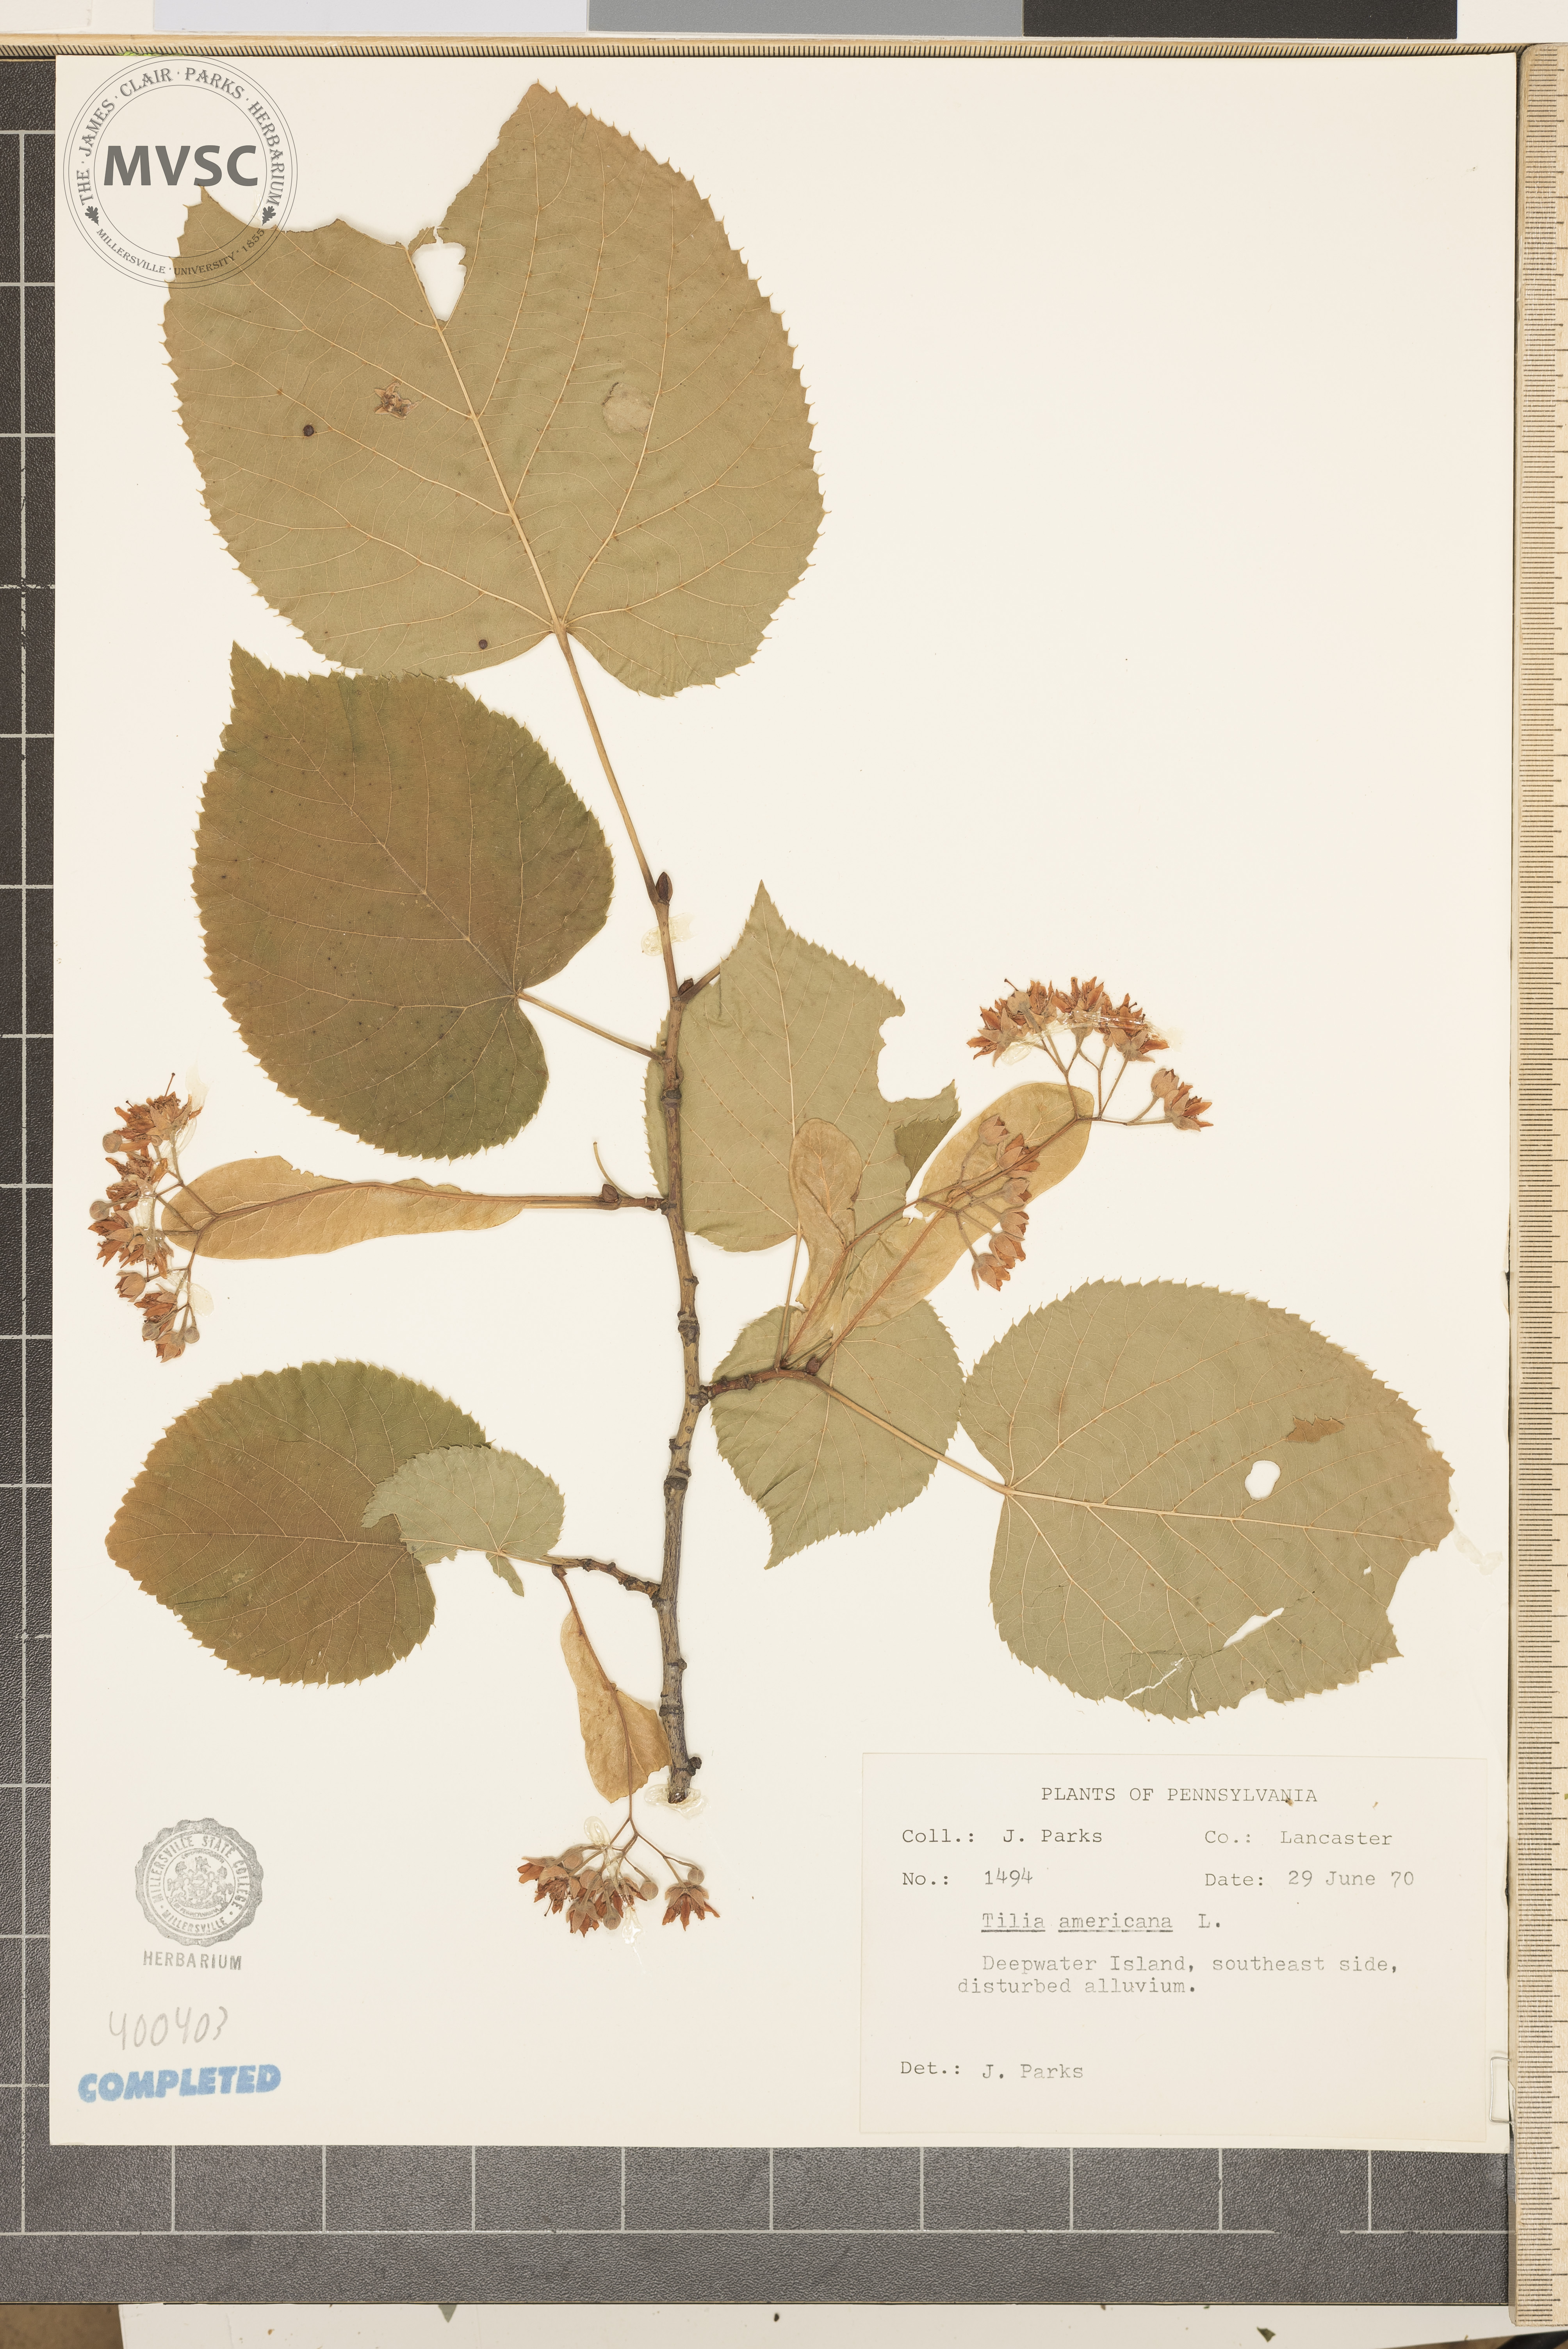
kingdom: Plantae
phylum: Tracheophyta
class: Magnoliopsida
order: Malvales
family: Malvaceae
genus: Tilia
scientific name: Tilia americana
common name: American basswood
